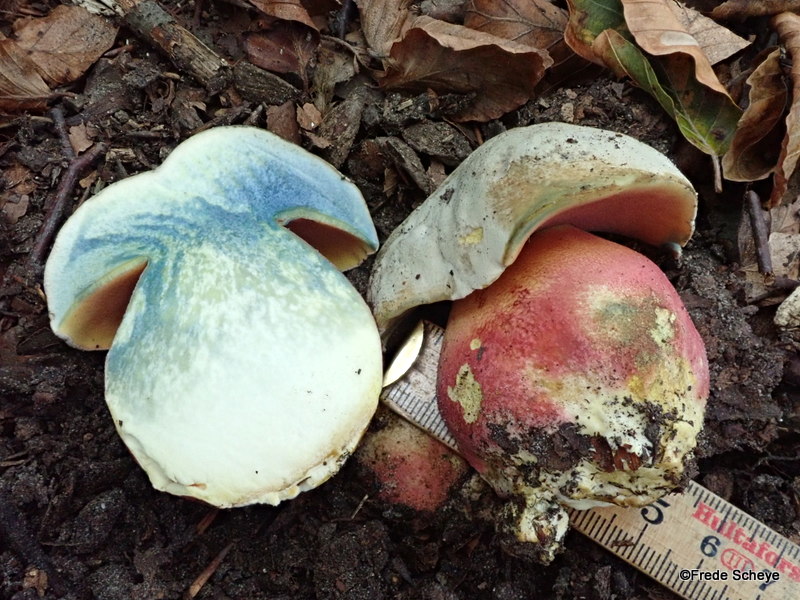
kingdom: Fungi
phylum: Basidiomycota
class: Agaricomycetes
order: Boletales
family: Boletaceae
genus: Rubroboletus
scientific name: Rubroboletus satanas
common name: Satans rørhat
